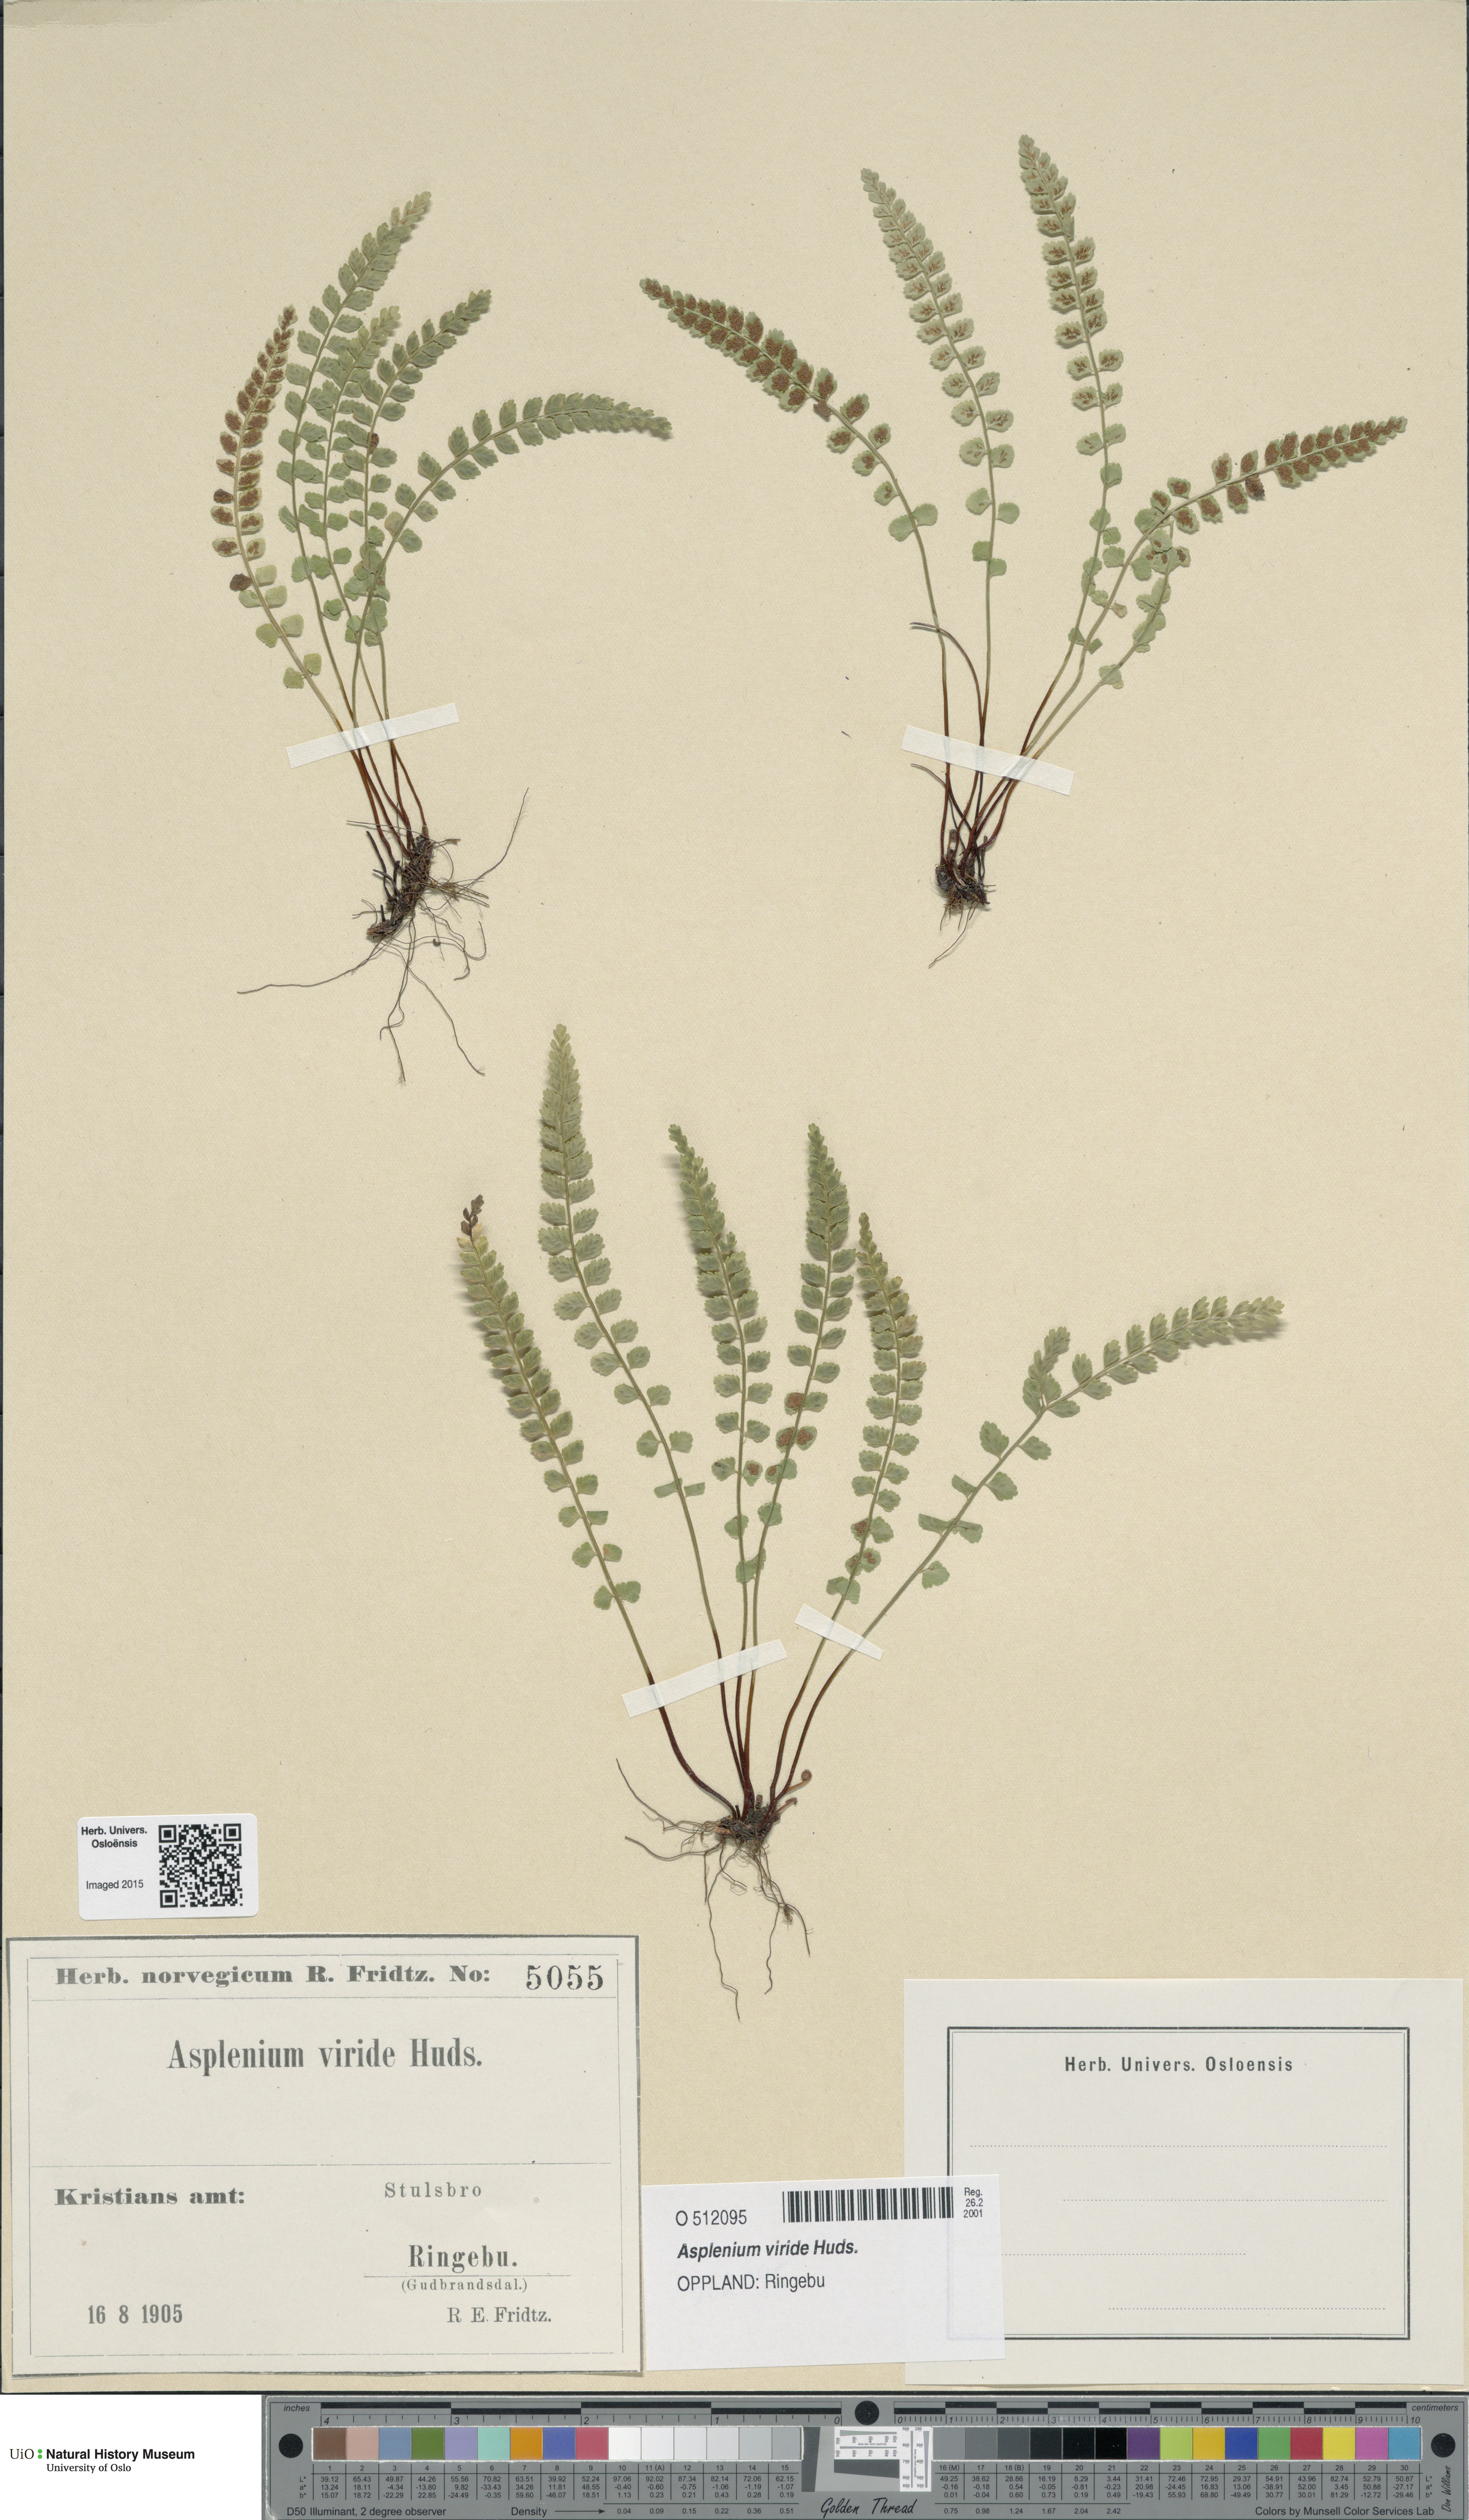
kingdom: Plantae
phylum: Tracheophyta
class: Polypodiopsida
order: Polypodiales
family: Aspleniaceae
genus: Asplenium
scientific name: Asplenium viride
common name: Green spleenwort
